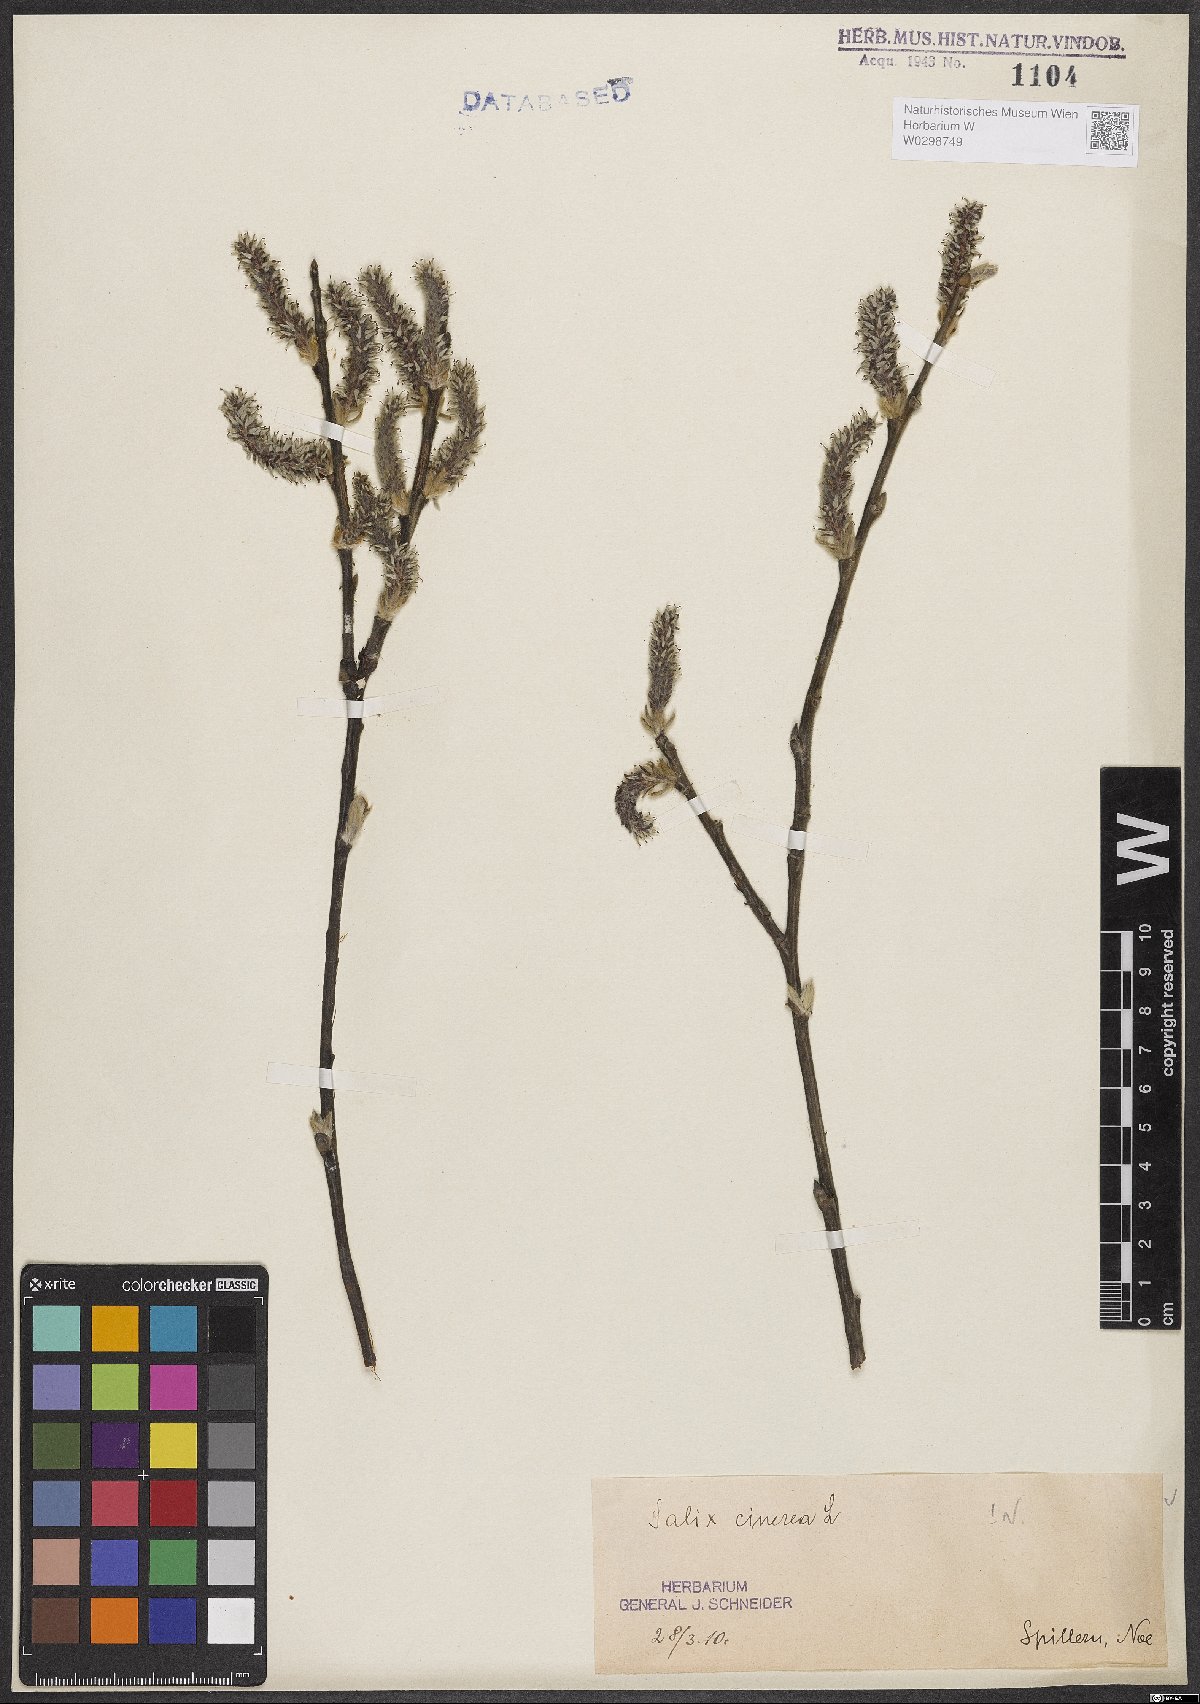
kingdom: Plantae
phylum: Tracheophyta
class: Magnoliopsida
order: Malpighiales
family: Salicaceae
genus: Salix
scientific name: Salix cinerea
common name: Common sallow
